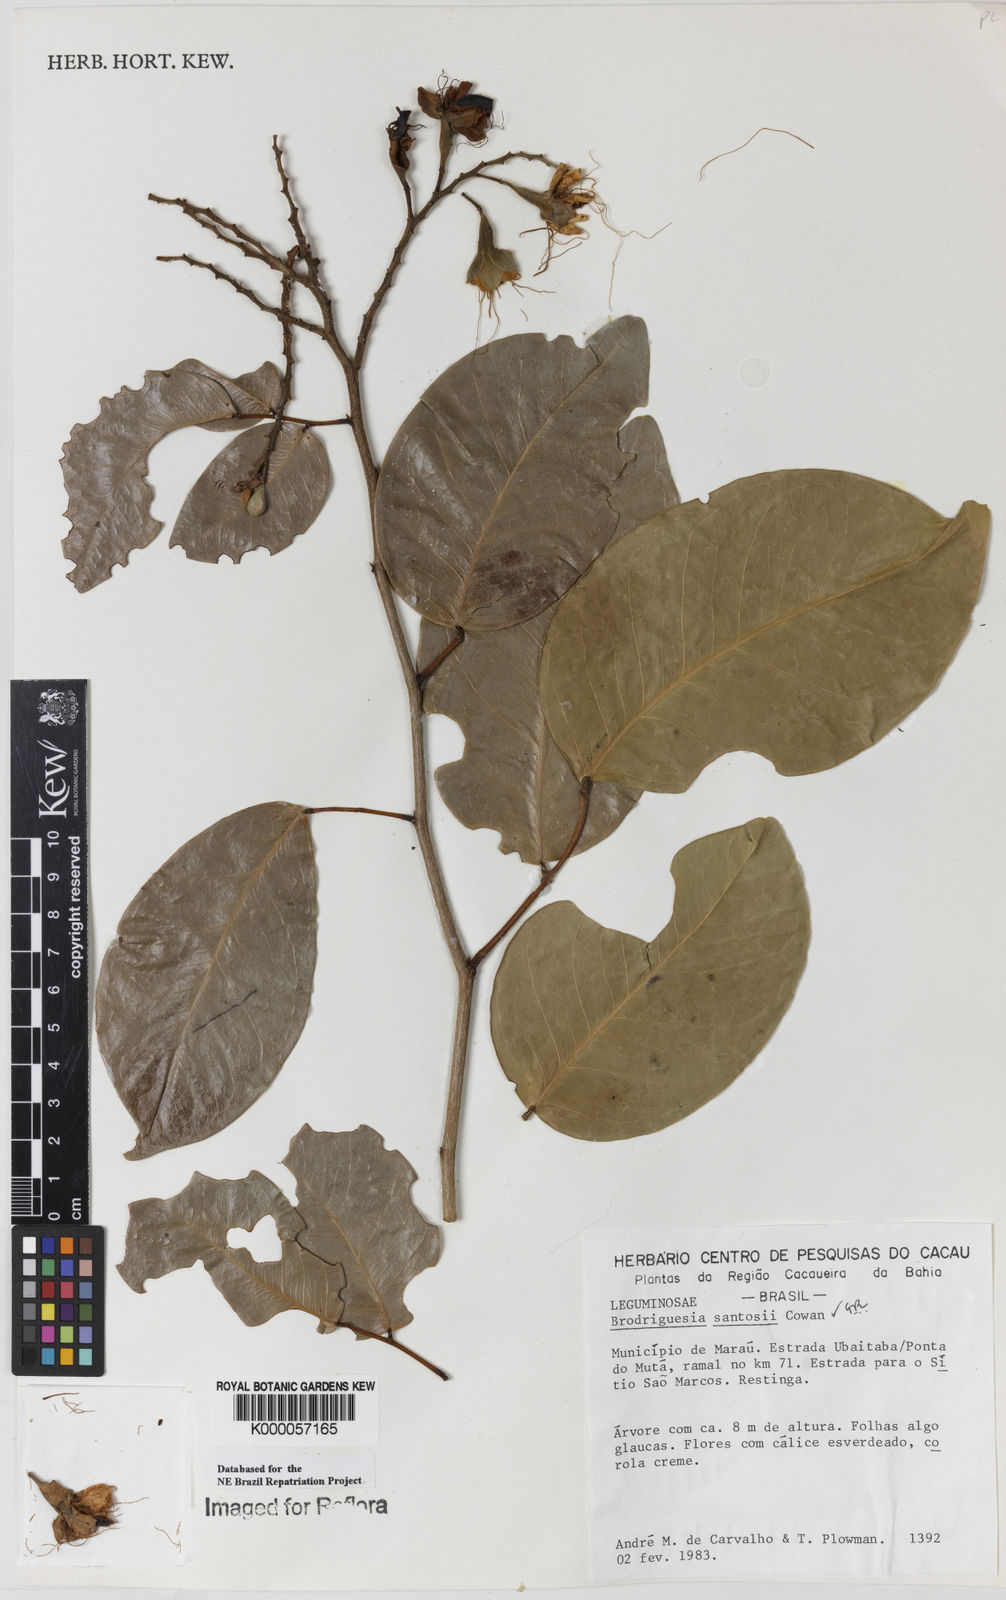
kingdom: Plantae
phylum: Tracheophyta
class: Magnoliopsida
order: Fabales
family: Fabaceae
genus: Brodriguesia
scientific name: Brodriguesia santosii
